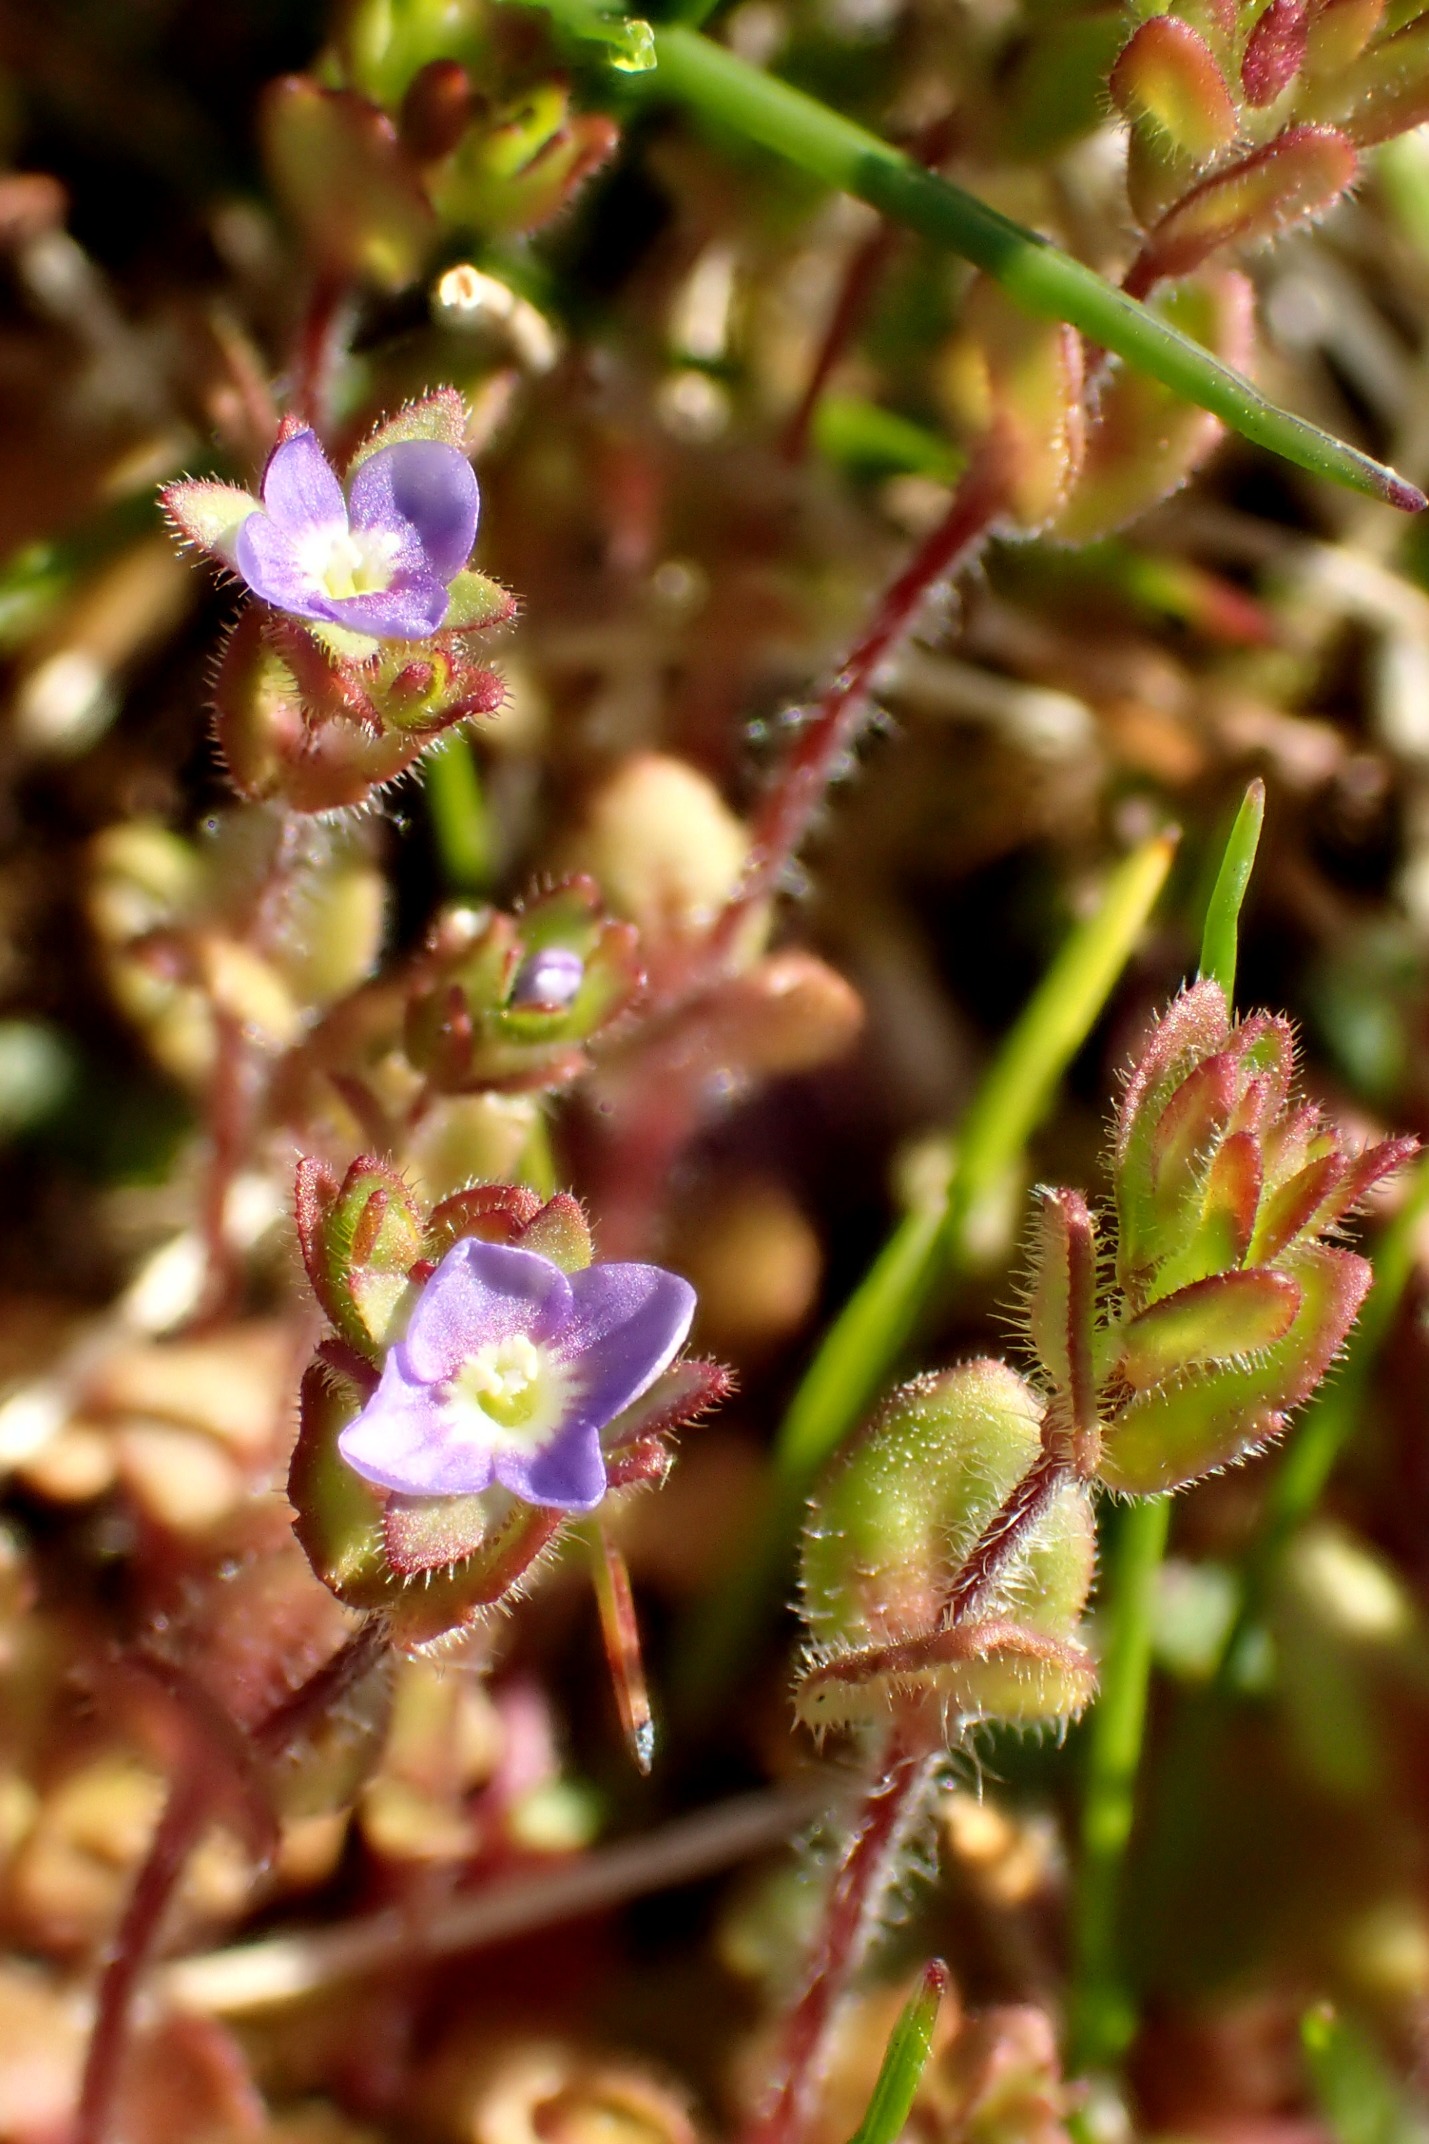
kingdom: Plantae
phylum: Tracheophyta
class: Magnoliopsida
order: Lamiales
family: Plantaginaceae
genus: Veronica
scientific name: Veronica arvensis
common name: Mark-ærenpris
